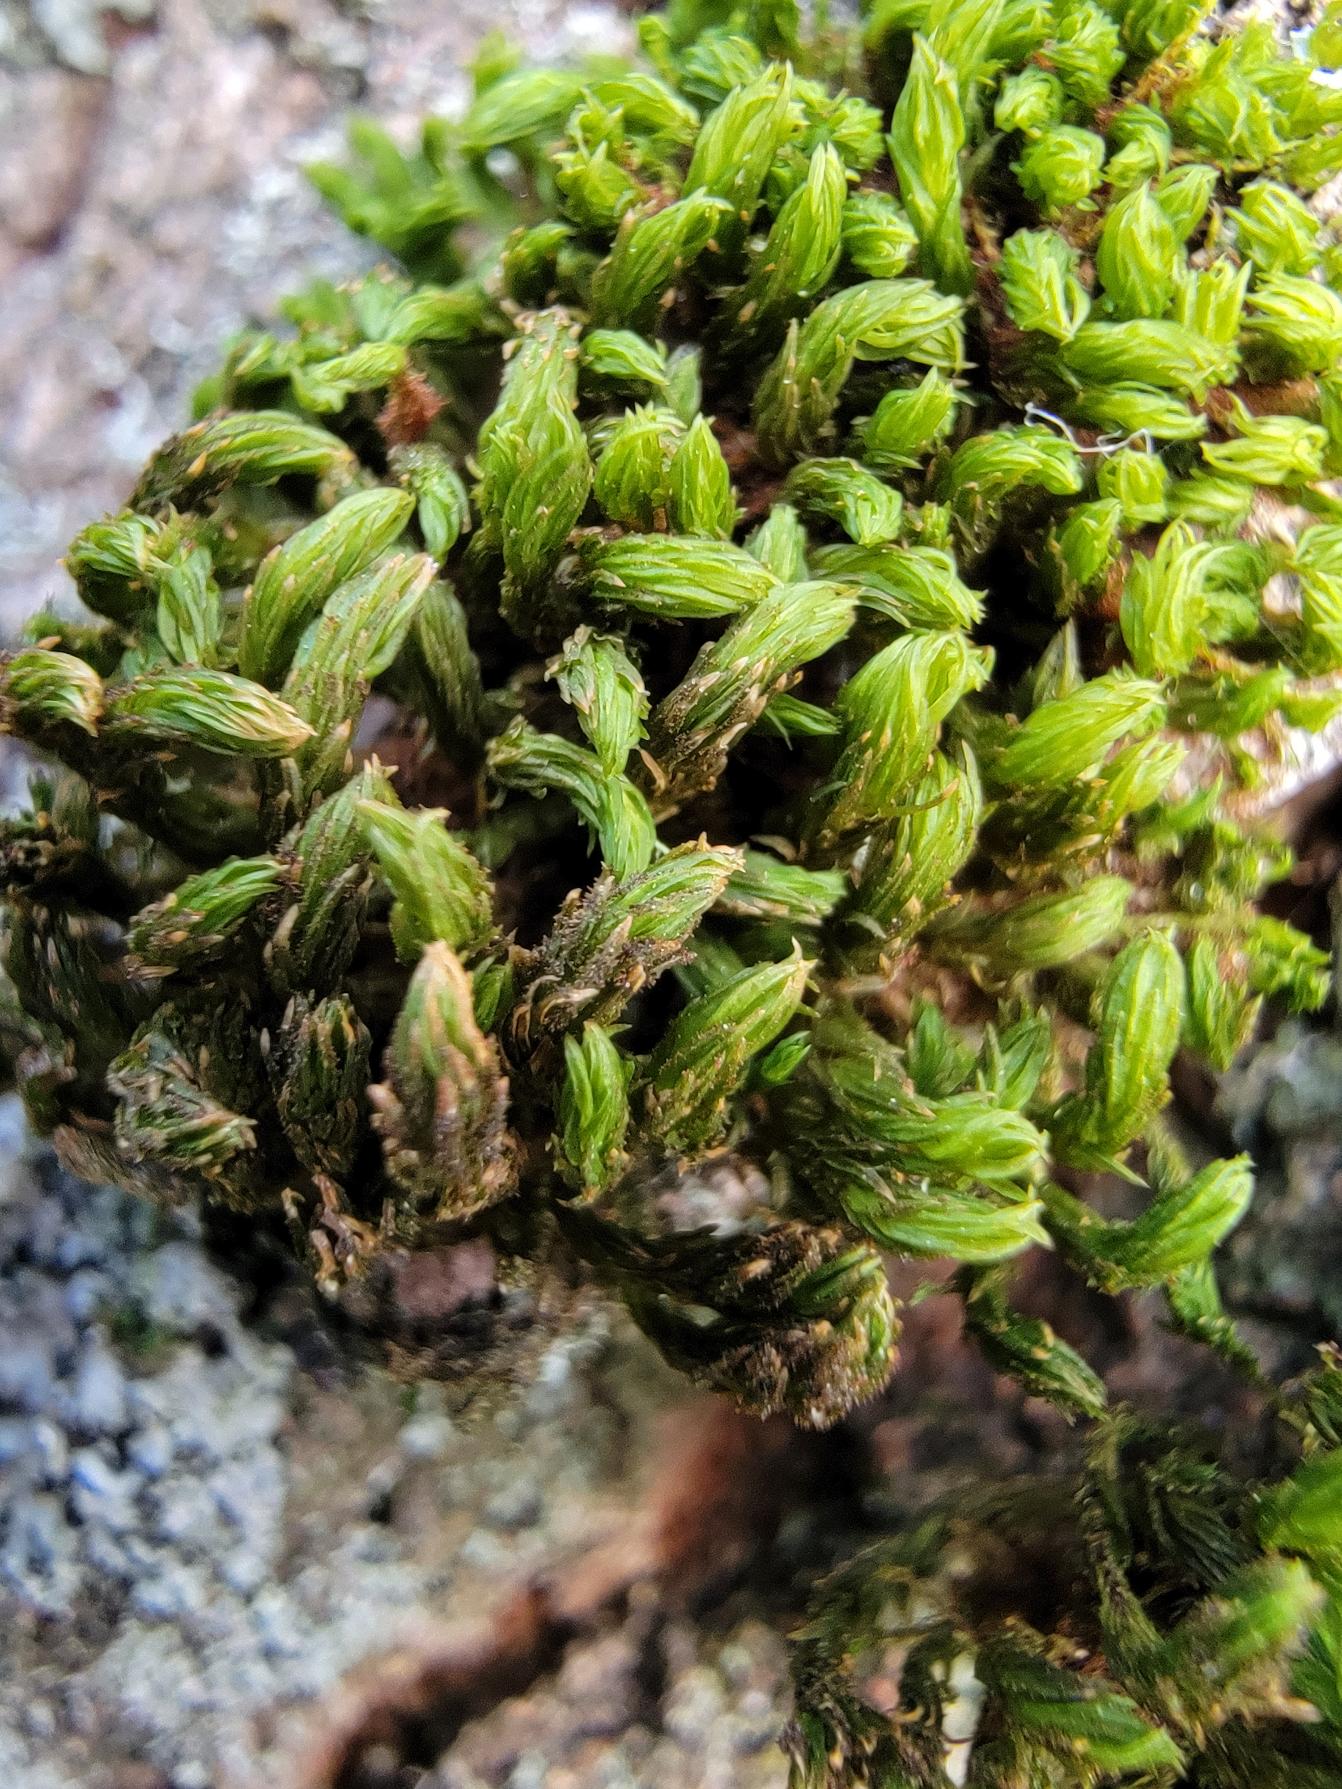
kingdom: Plantae
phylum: Bryophyta
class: Bryopsida
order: Orthotrichales
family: Orthotrichaceae
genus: Pulvigera
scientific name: Pulvigera lyellii
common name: Stor furehætte
